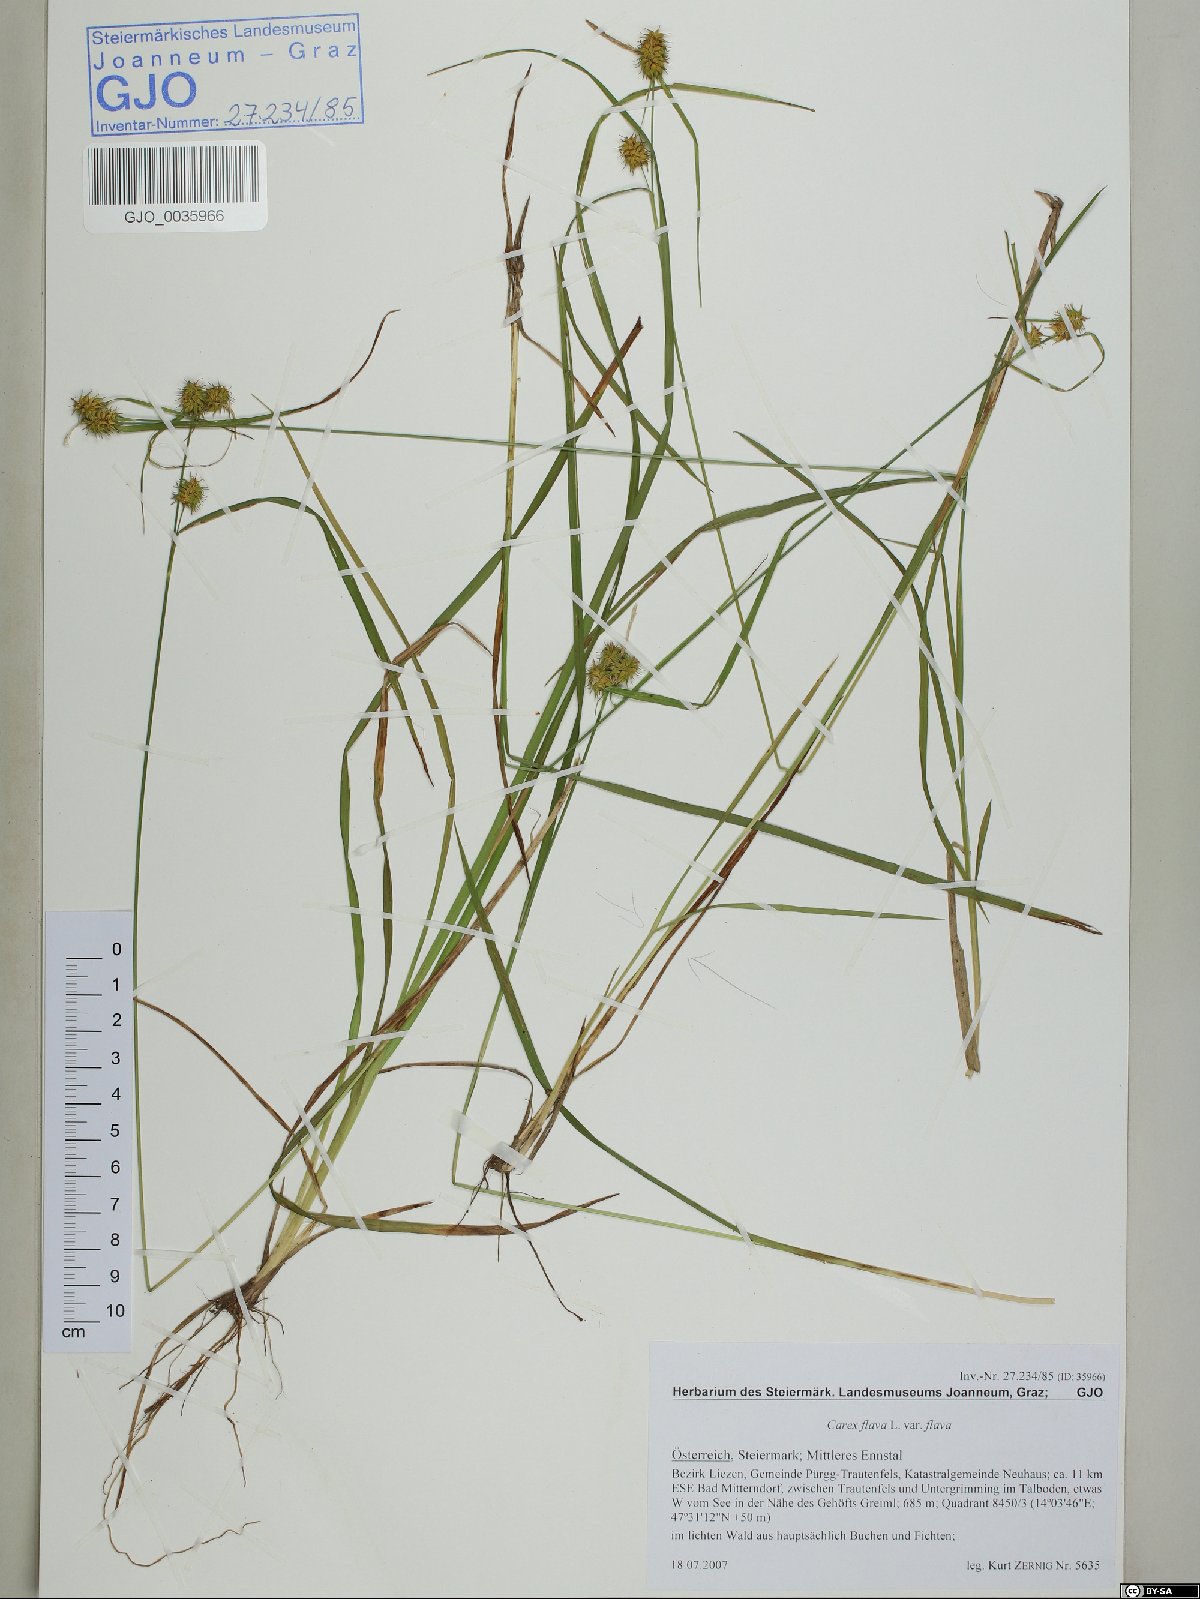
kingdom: Plantae
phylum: Tracheophyta
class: Liliopsida
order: Poales
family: Cyperaceae
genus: Carex
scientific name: Carex flava
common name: Large yellow-sedge
